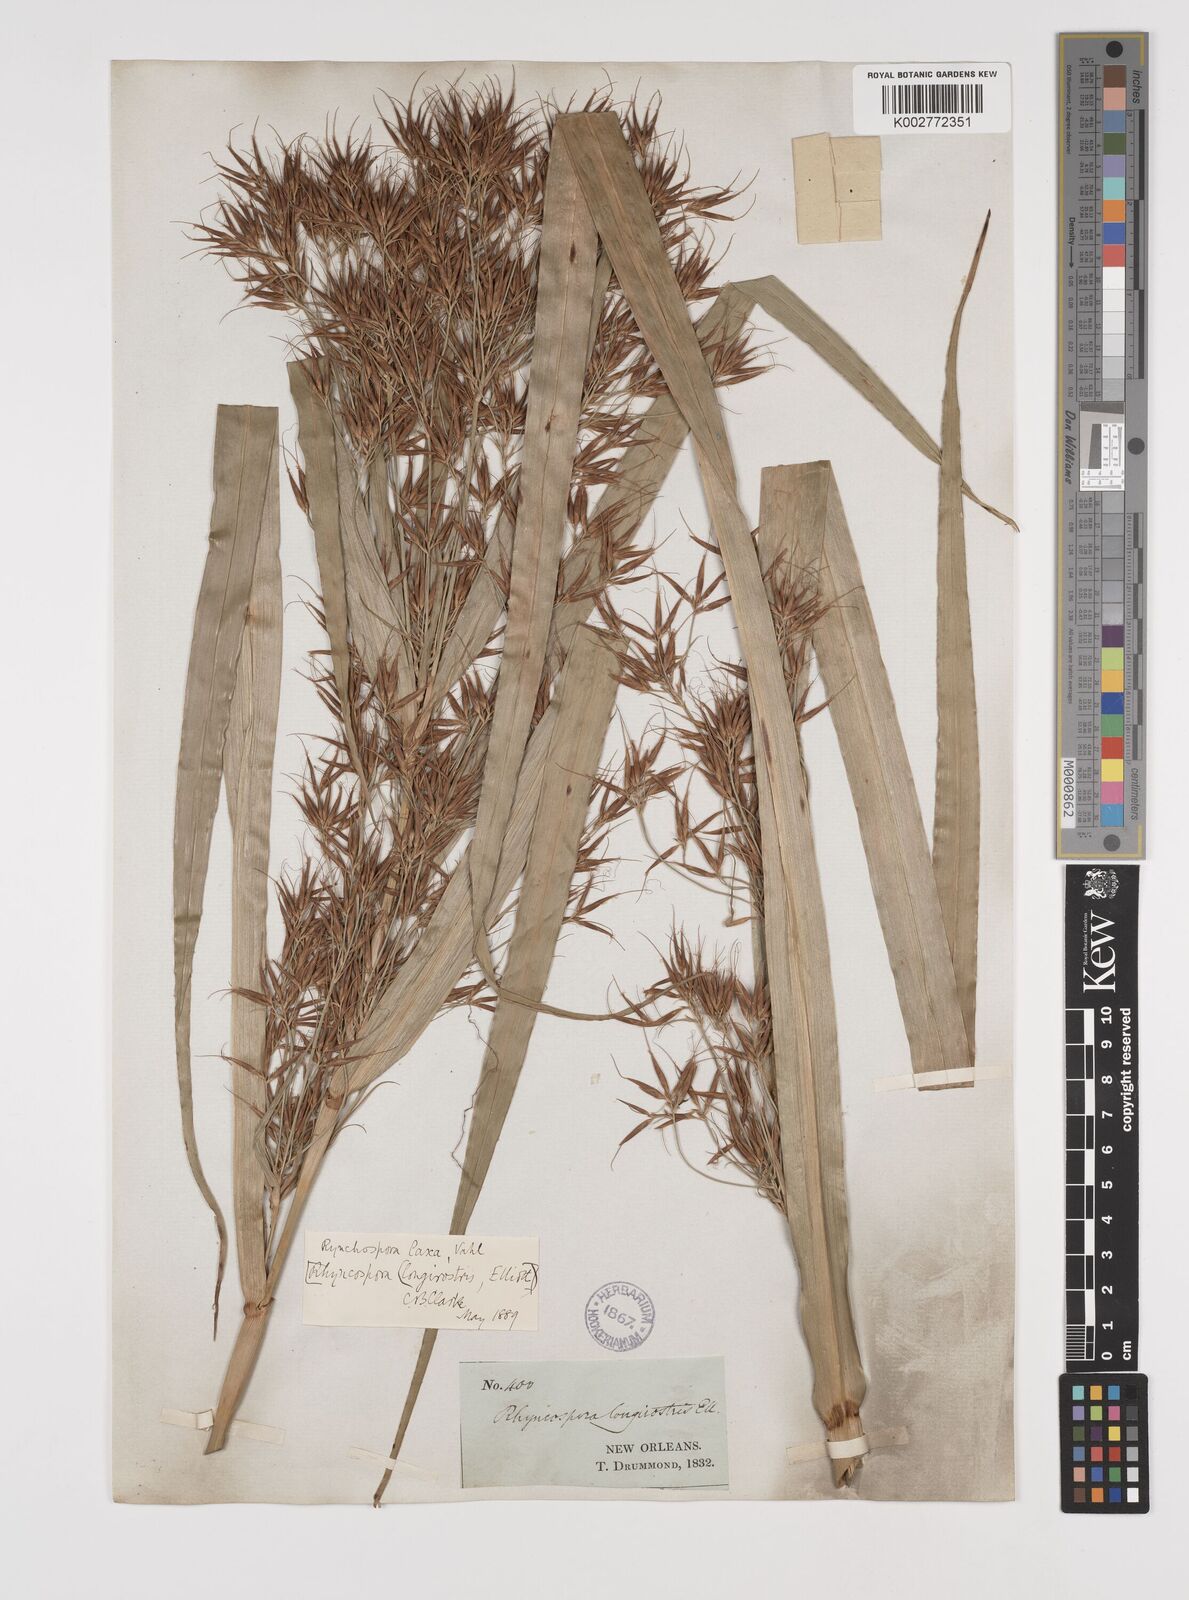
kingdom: Plantae
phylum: Tracheophyta
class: Liliopsida
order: Poales
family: Cyperaceae
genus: Rhynchospora
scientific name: Rhynchospora corniculata
